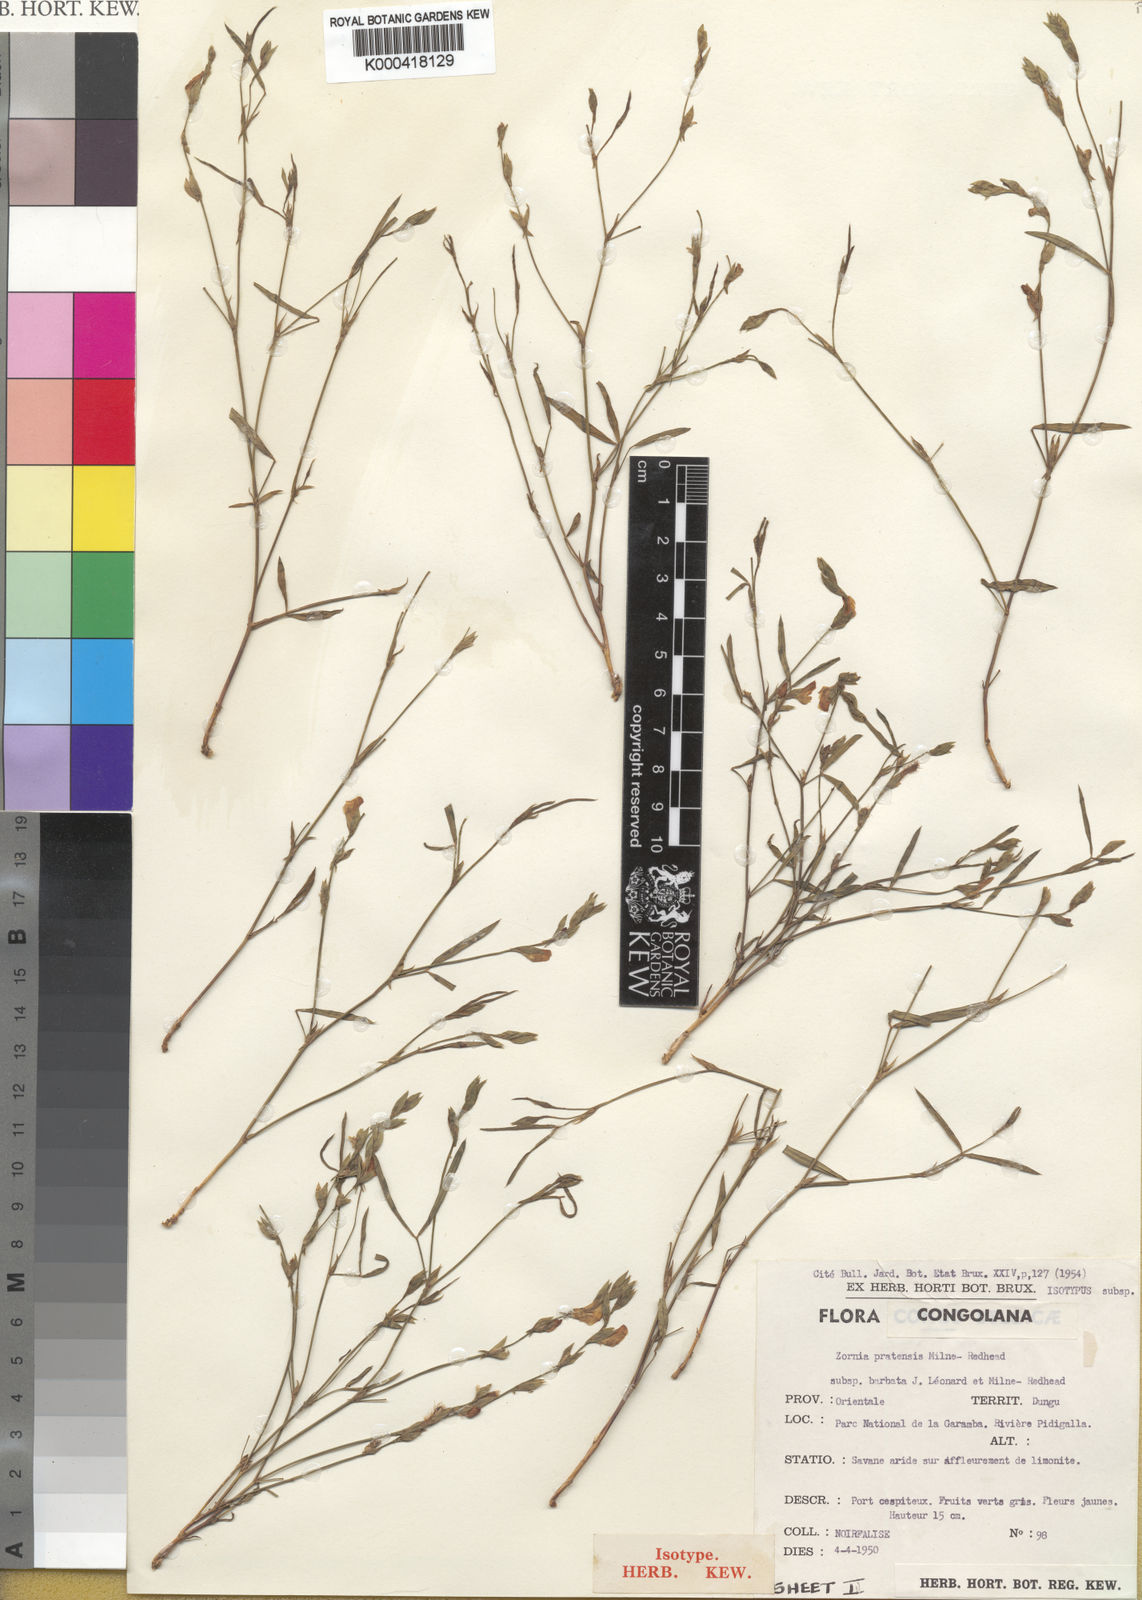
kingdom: Plantae
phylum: Tracheophyta
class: Magnoliopsida
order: Fabales
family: Fabaceae
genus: Zornia
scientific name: Zornia pratensis
